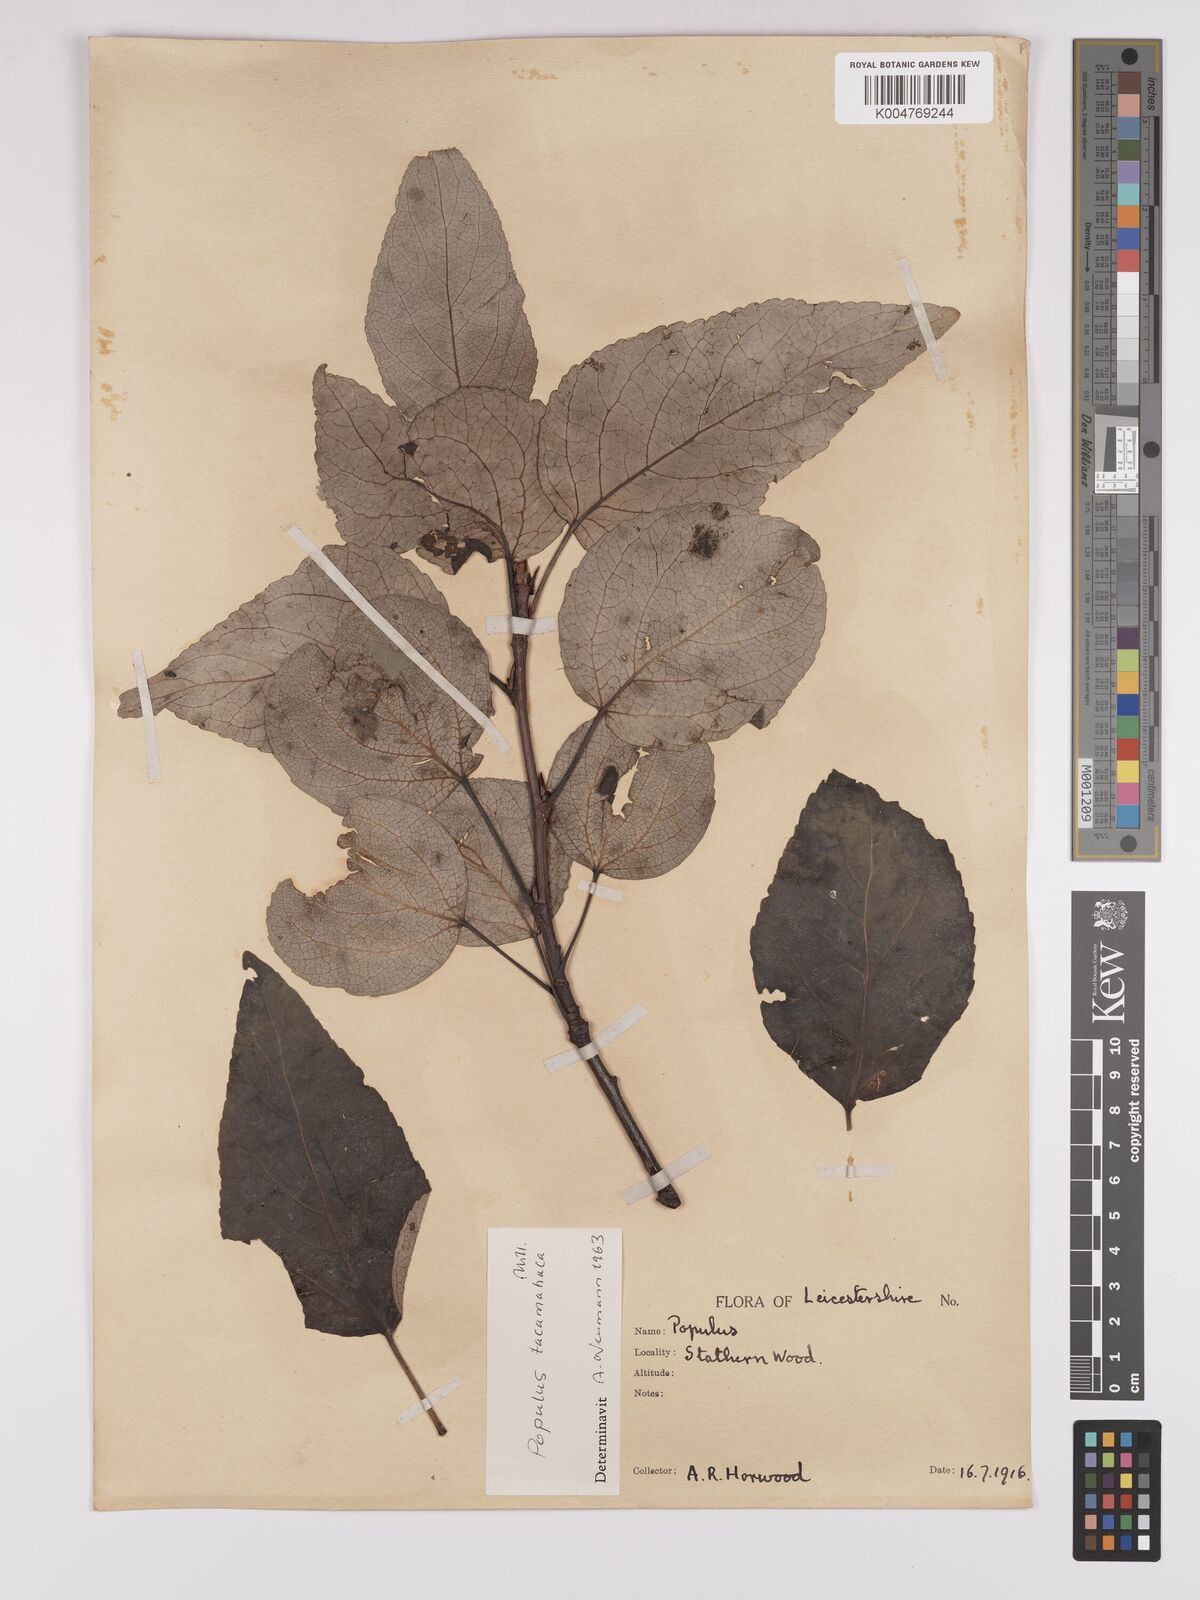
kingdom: Plantae
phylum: Tracheophyta
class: Magnoliopsida
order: Malpighiales
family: Salicaceae
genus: Populus
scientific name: Populus balsamifera
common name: Balsam poplar
